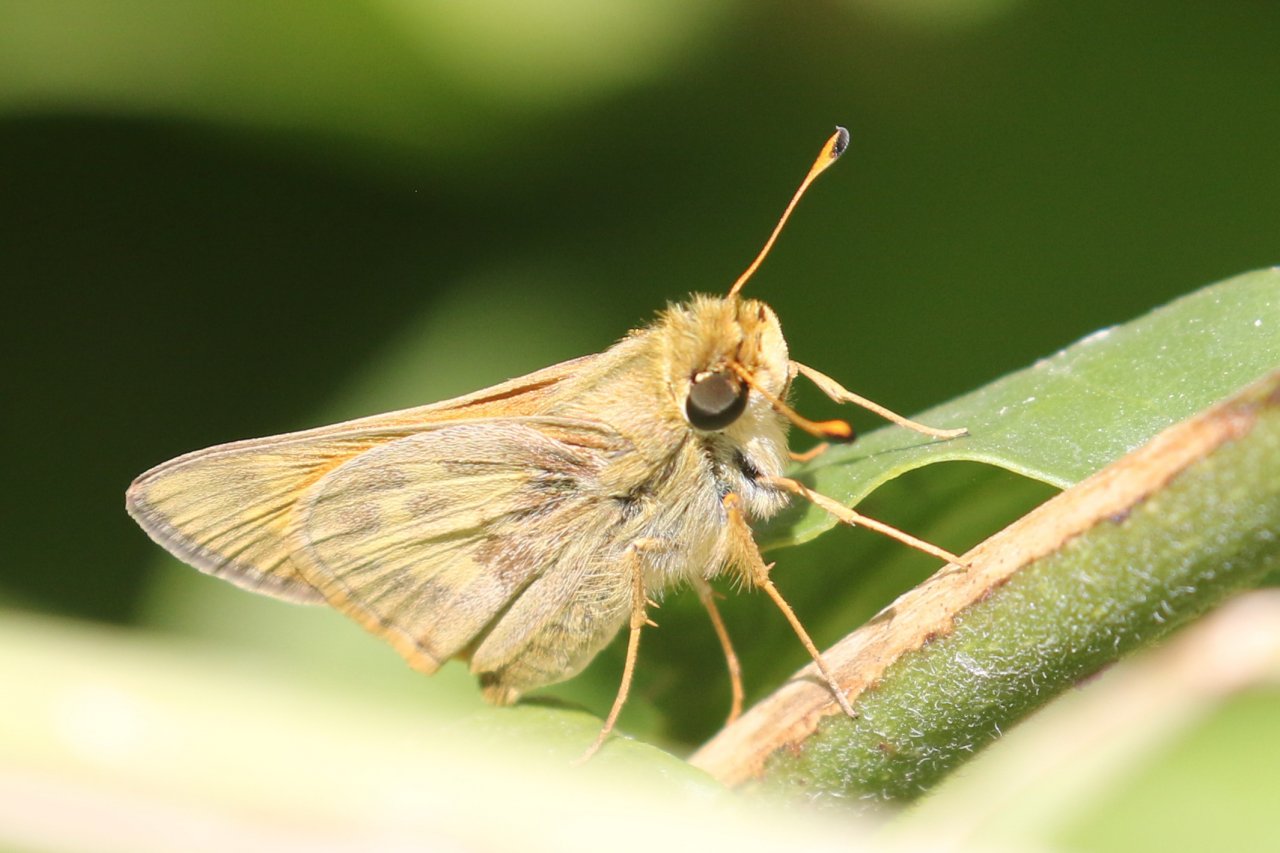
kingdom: Animalia
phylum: Arthropoda
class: Insecta
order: Lepidoptera
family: Hesperiidae
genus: Atalopedes
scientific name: Atalopedes campestris
